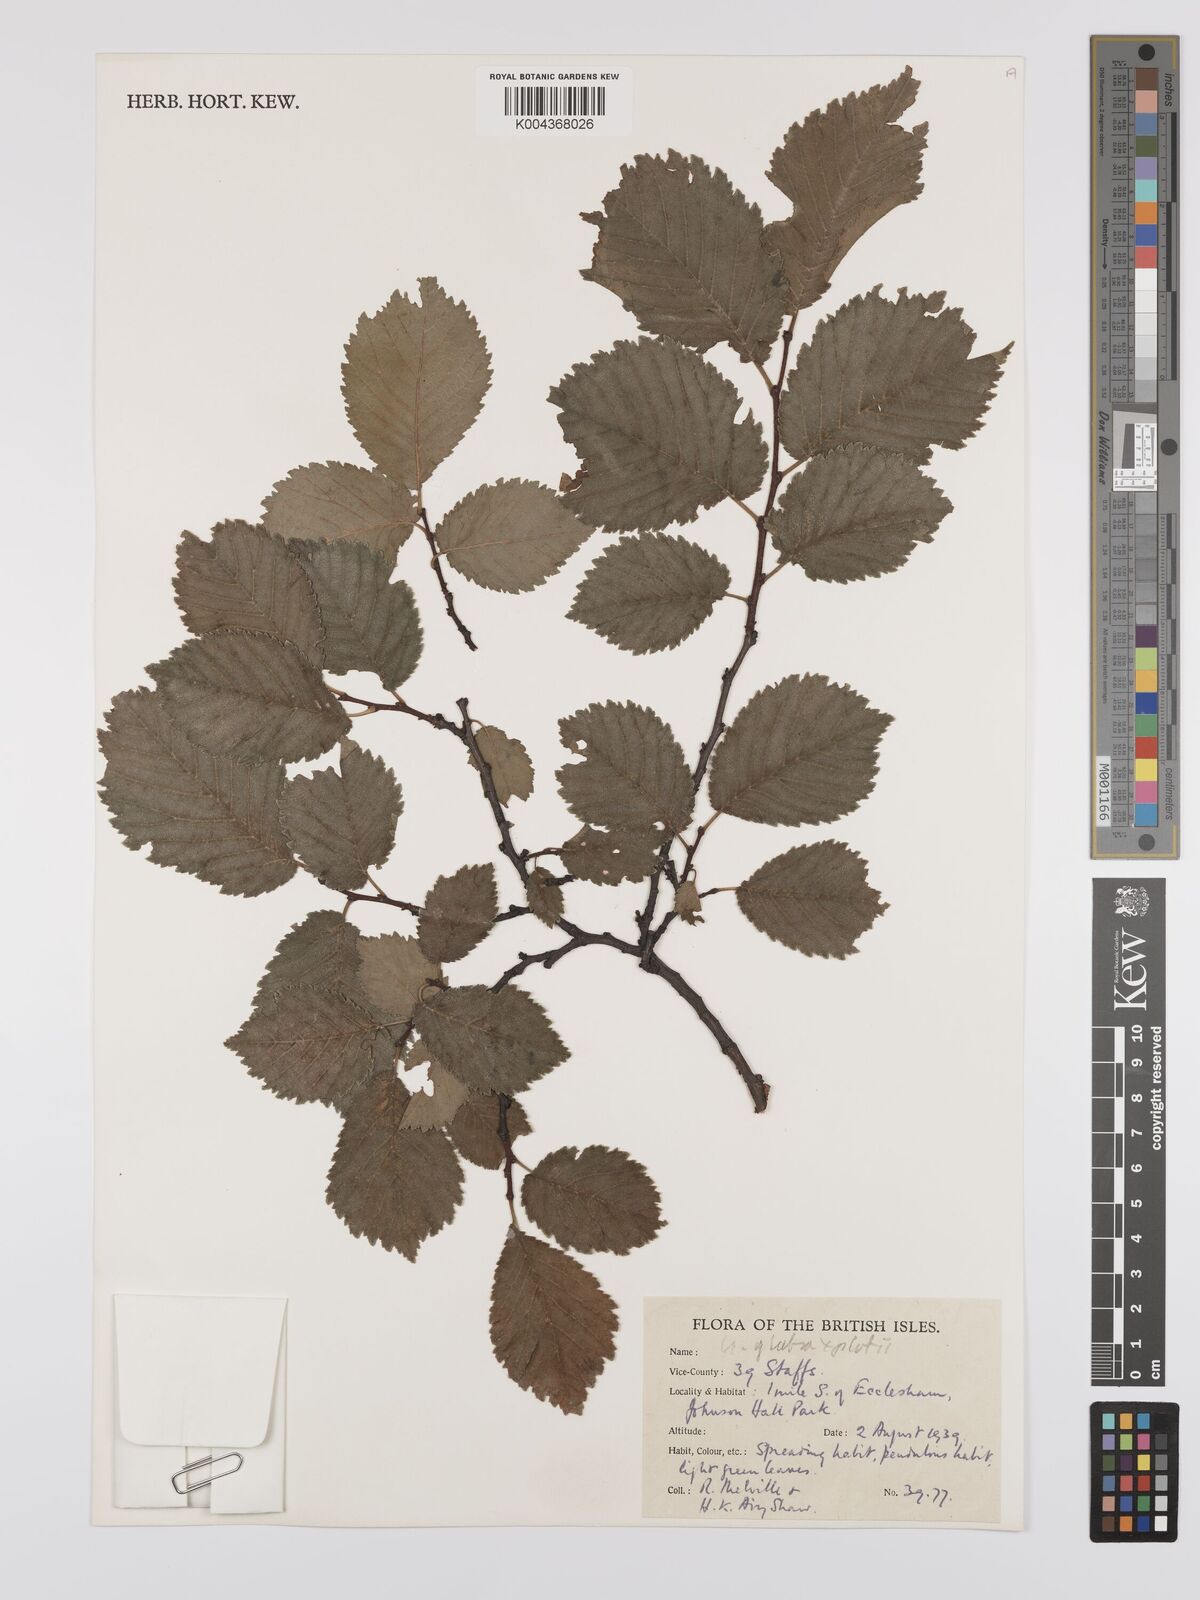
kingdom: Plantae
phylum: Tracheophyta
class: Magnoliopsida
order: Rosales
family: Ulmaceae
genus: Ulmus
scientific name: Ulmus
